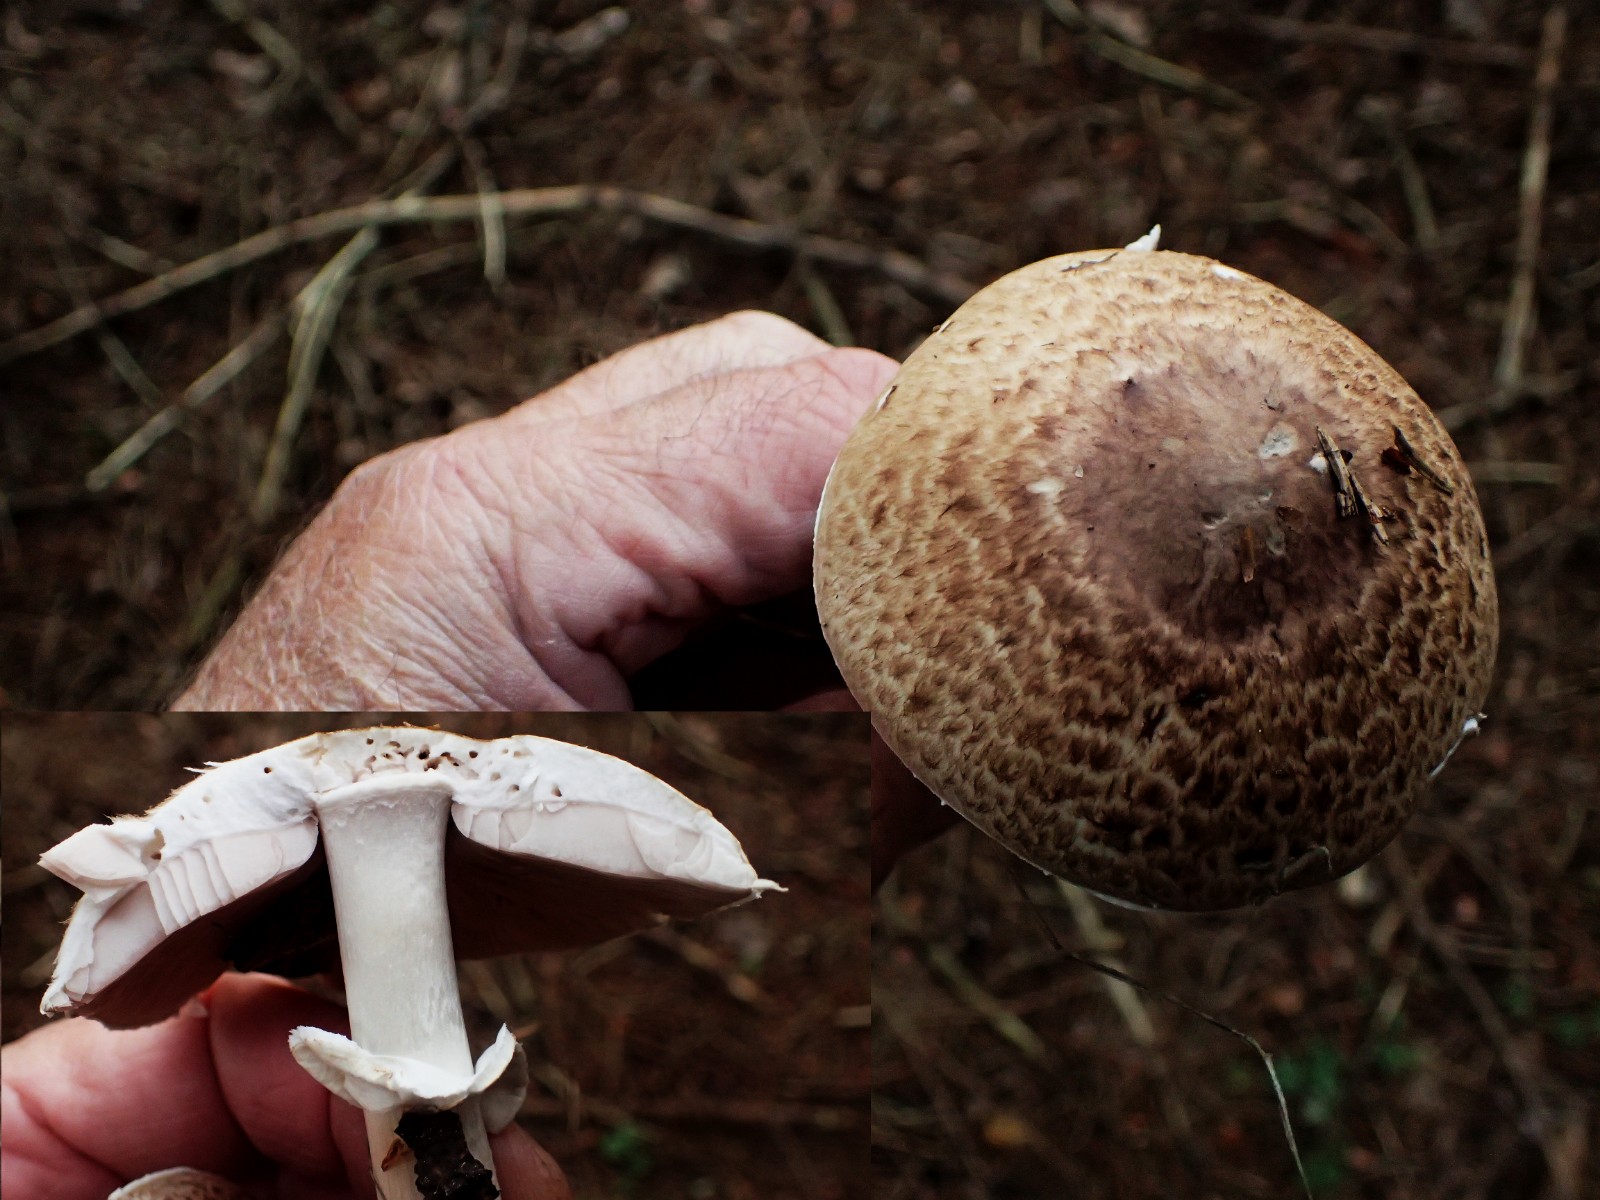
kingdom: Fungi
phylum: Basidiomycota
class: Agaricomycetes
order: Agaricales
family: Agaricaceae
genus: Agaricus
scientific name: Agaricus impudicus
